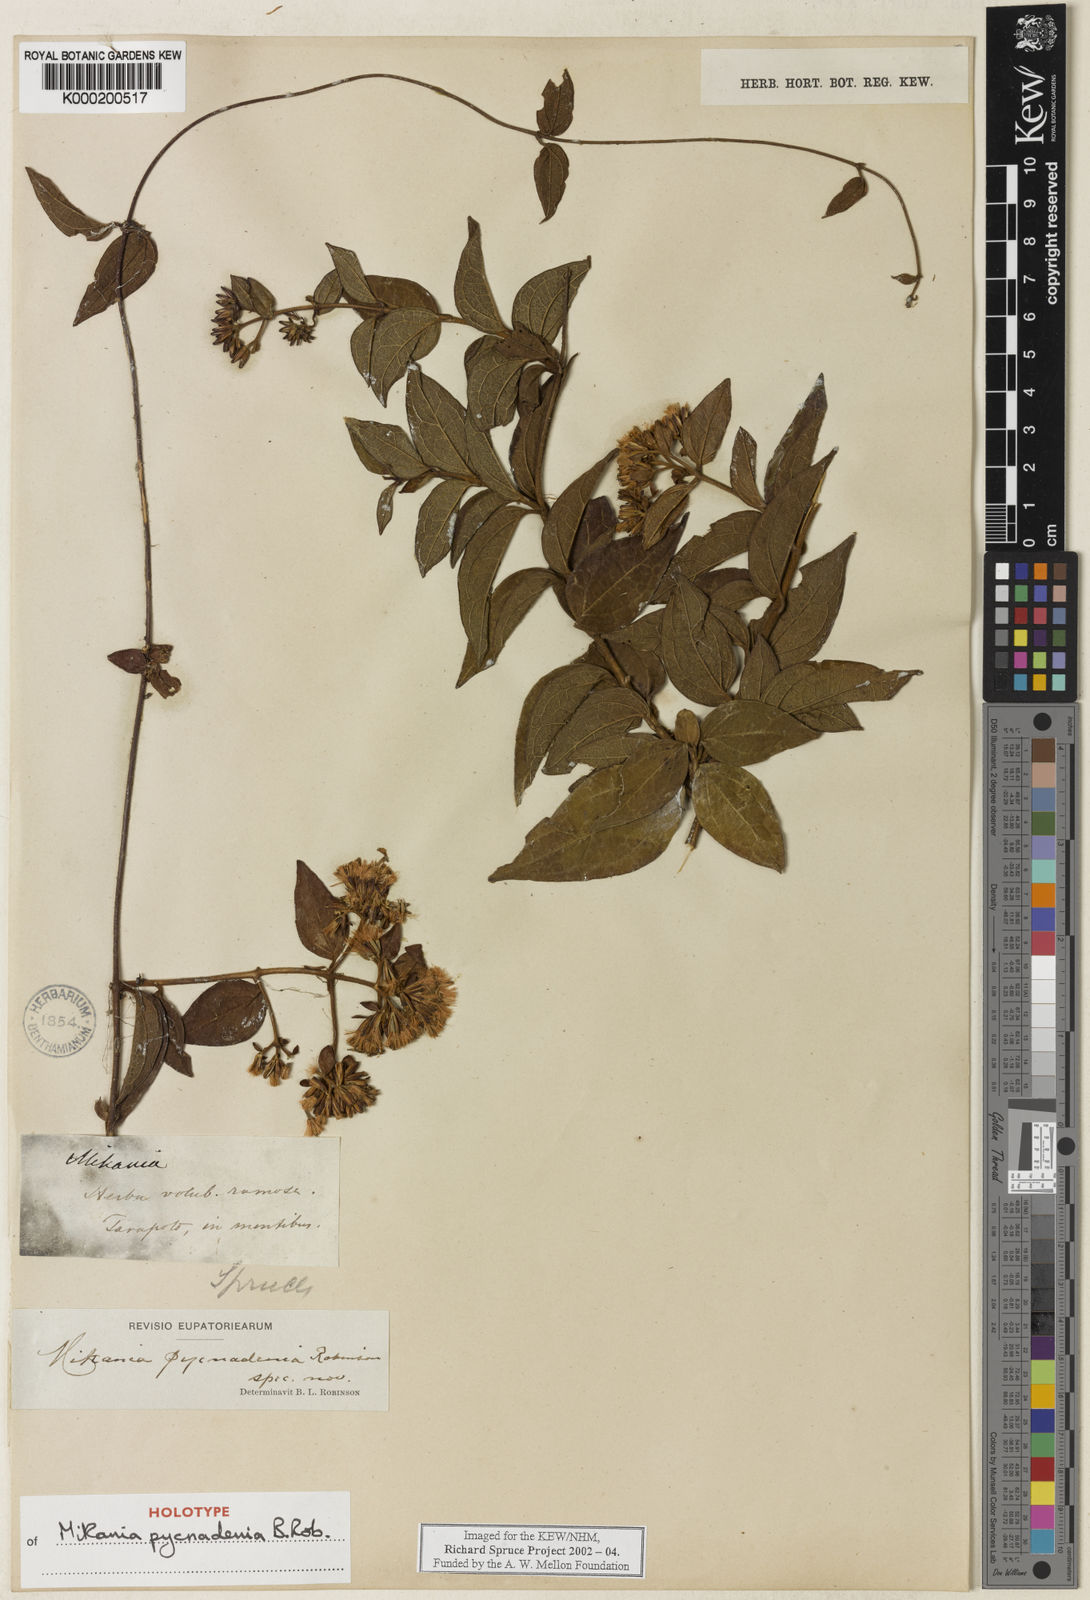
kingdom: Plantae
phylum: Tracheophyta
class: Magnoliopsida
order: Asterales
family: Asteraceae
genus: Mikania
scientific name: Mikania pycnadenia
